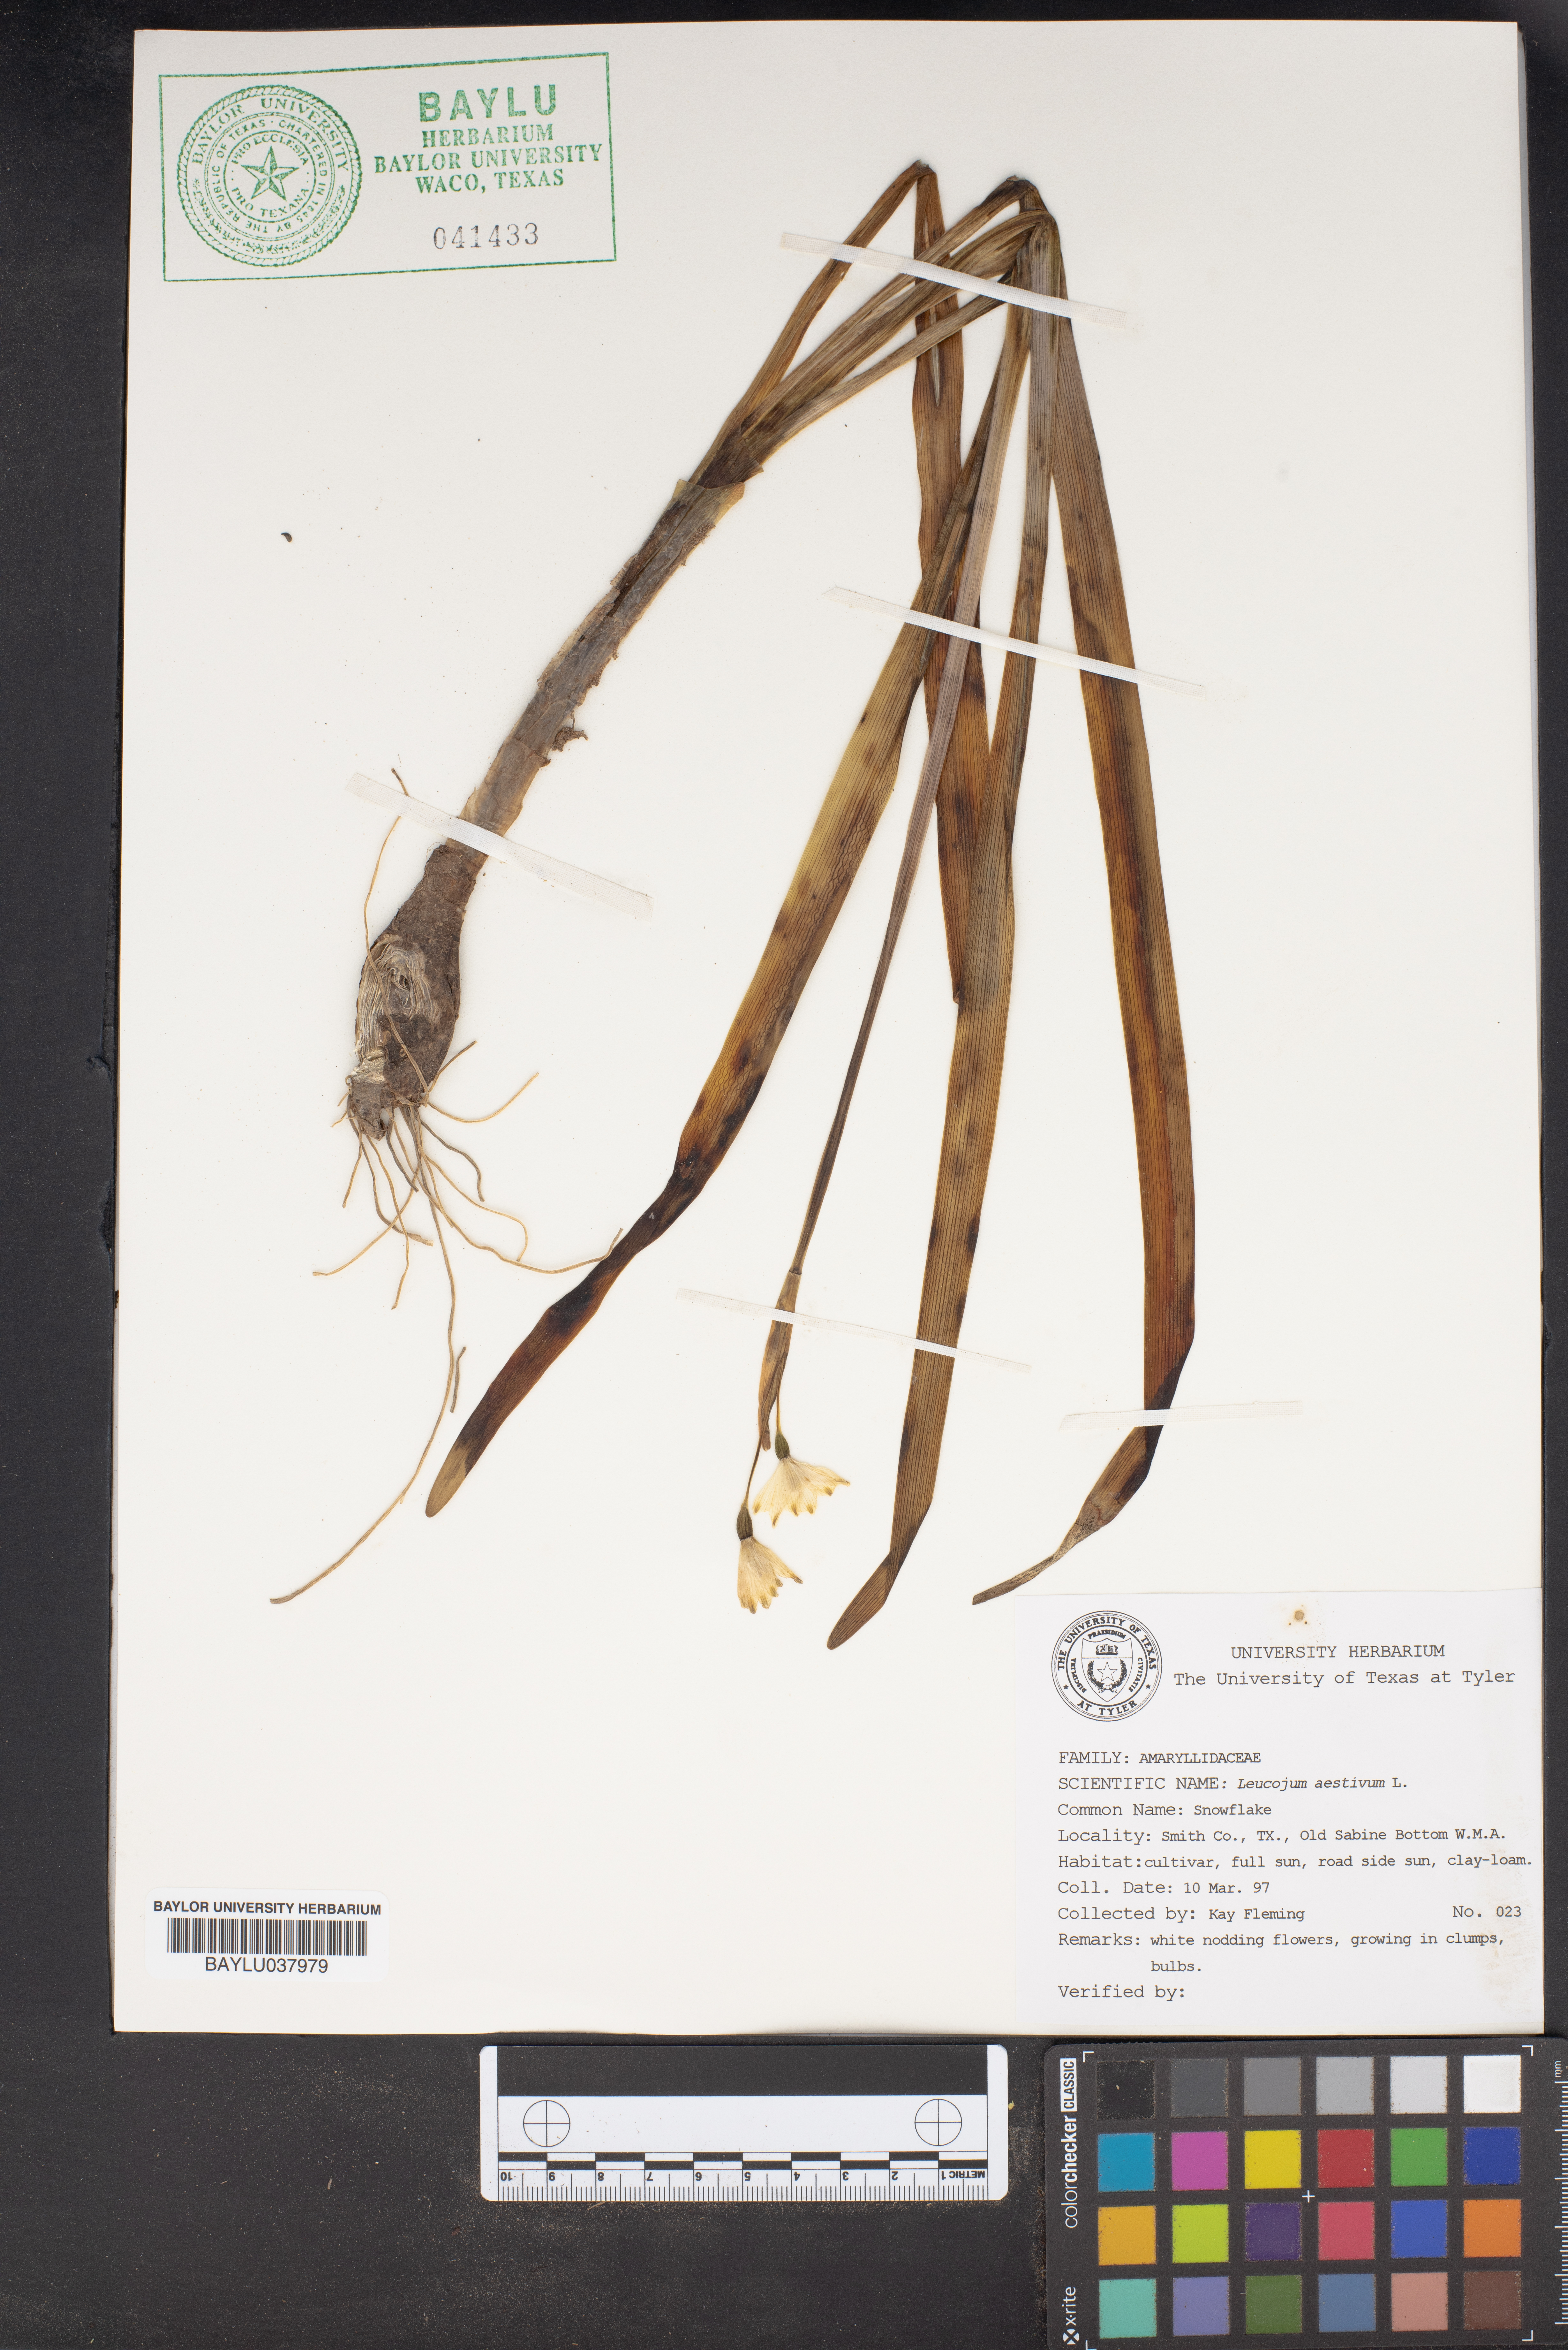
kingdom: Plantae
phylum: Tracheophyta
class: Liliopsida
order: Asparagales
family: Amaryllidaceae
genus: Leucojum
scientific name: Leucojum aestivum
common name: Summer snowflake
